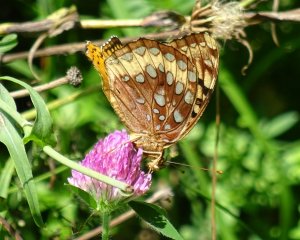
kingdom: Animalia
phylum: Arthropoda
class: Insecta
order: Lepidoptera
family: Nymphalidae
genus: Speyeria
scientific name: Speyeria cybele
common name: Great Spangled Fritillary
